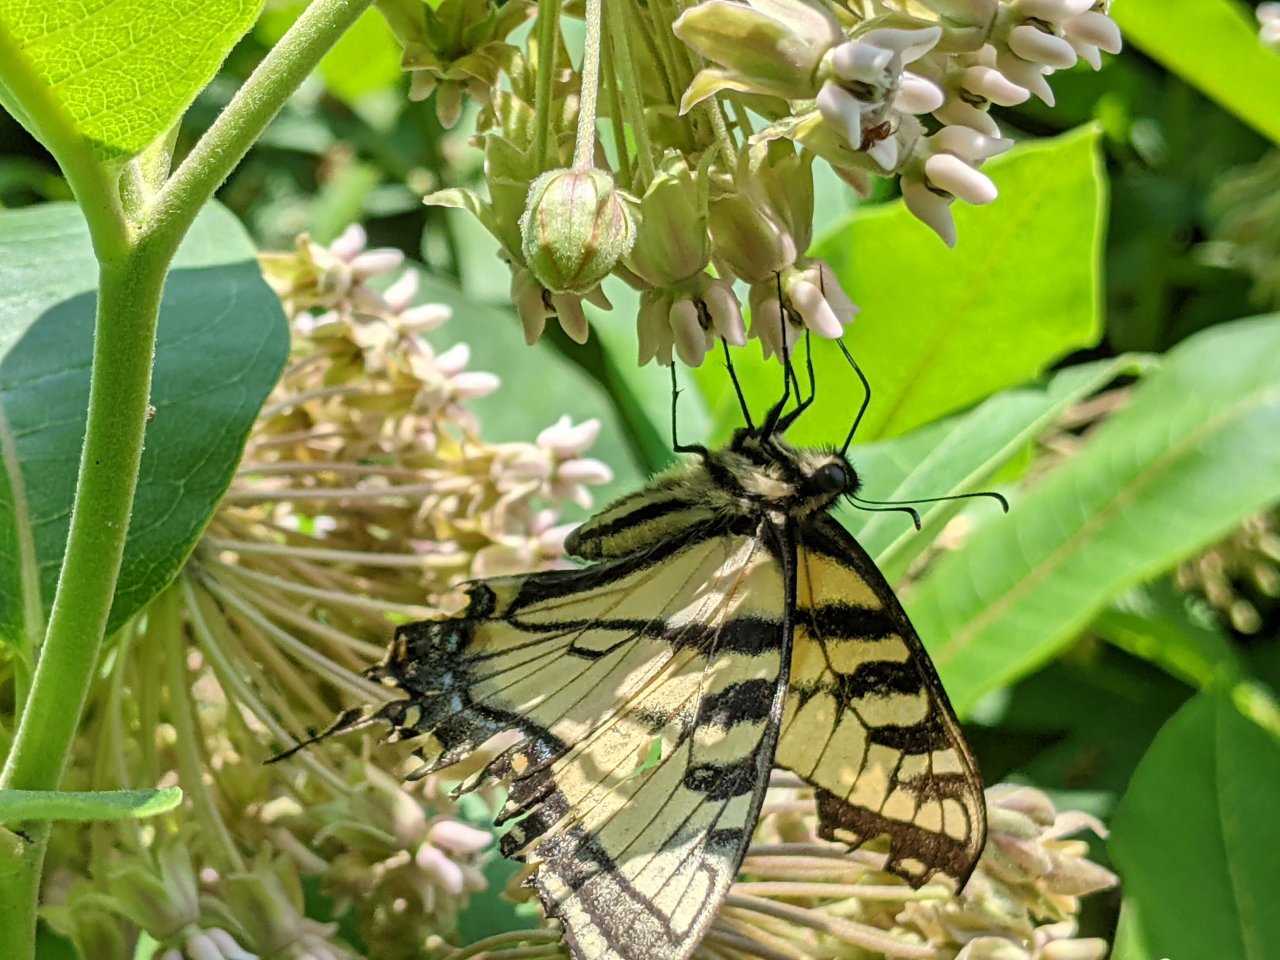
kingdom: Animalia
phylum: Arthropoda
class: Insecta
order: Lepidoptera
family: Papilionidae
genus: Papilio
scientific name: Papilio
